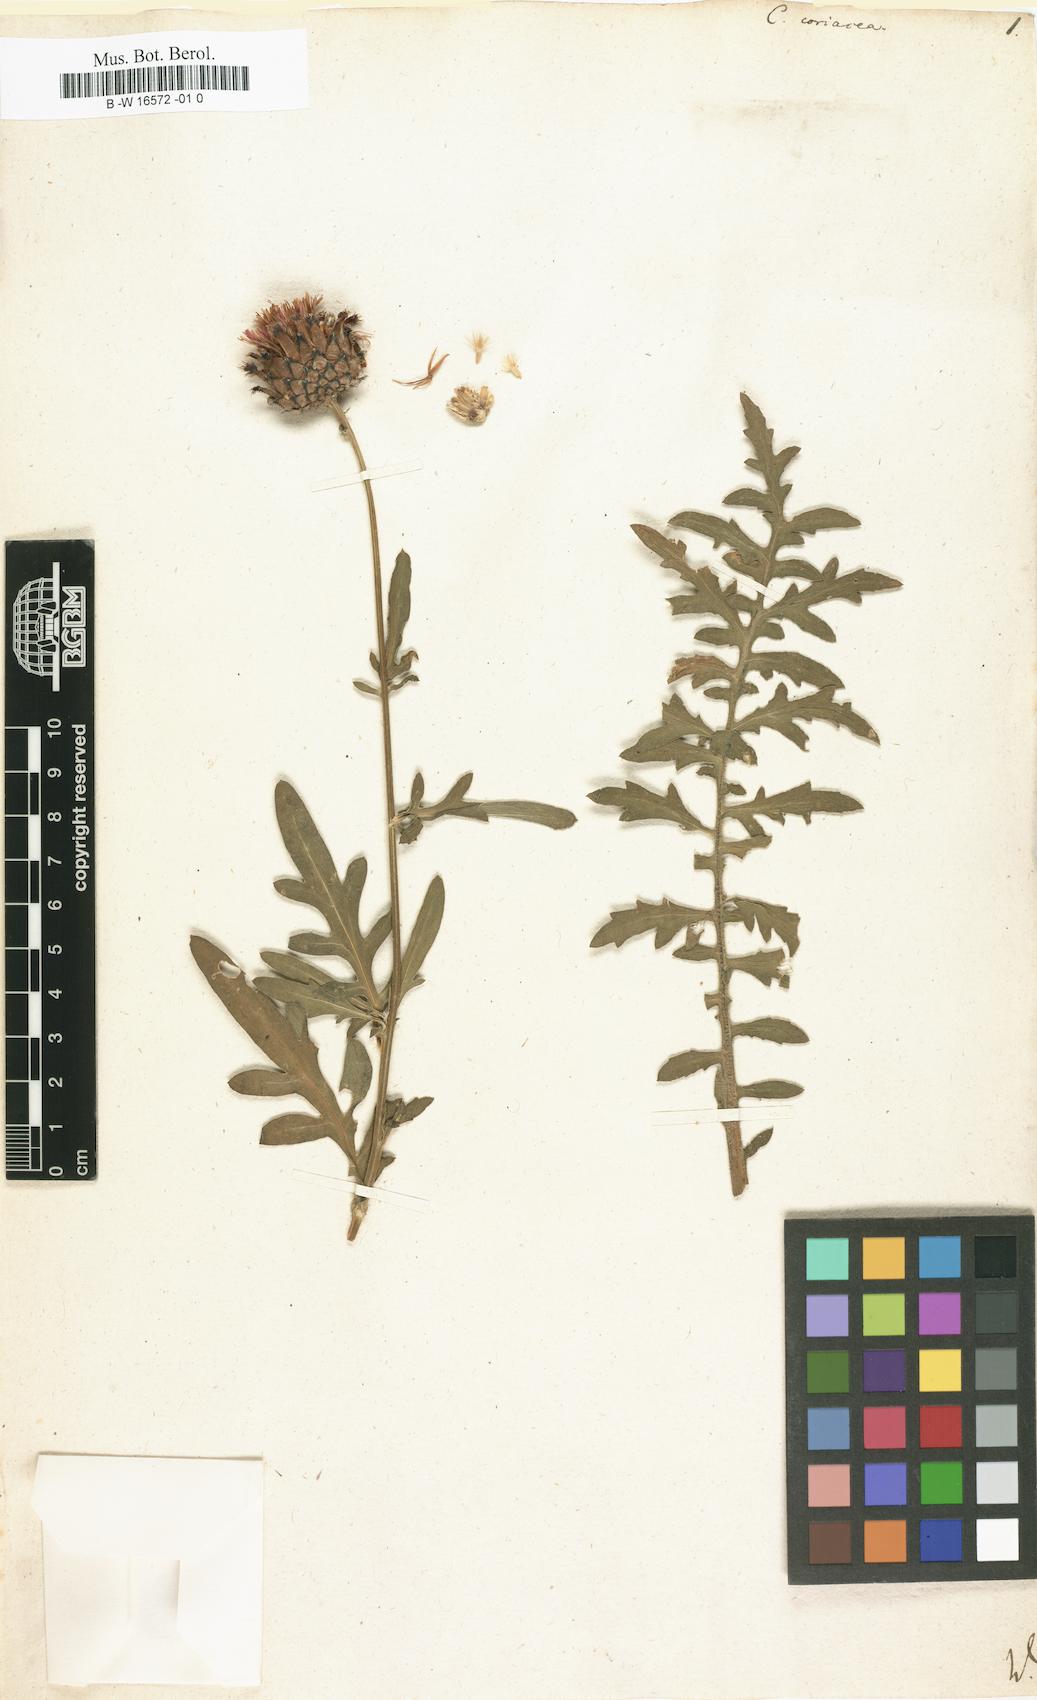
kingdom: Plantae
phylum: Tracheophyta
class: Magnoliopsida
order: Asterales
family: Asteraceae
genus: Centaurea
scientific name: Centaurea scabiosa
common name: Greater knapweed
